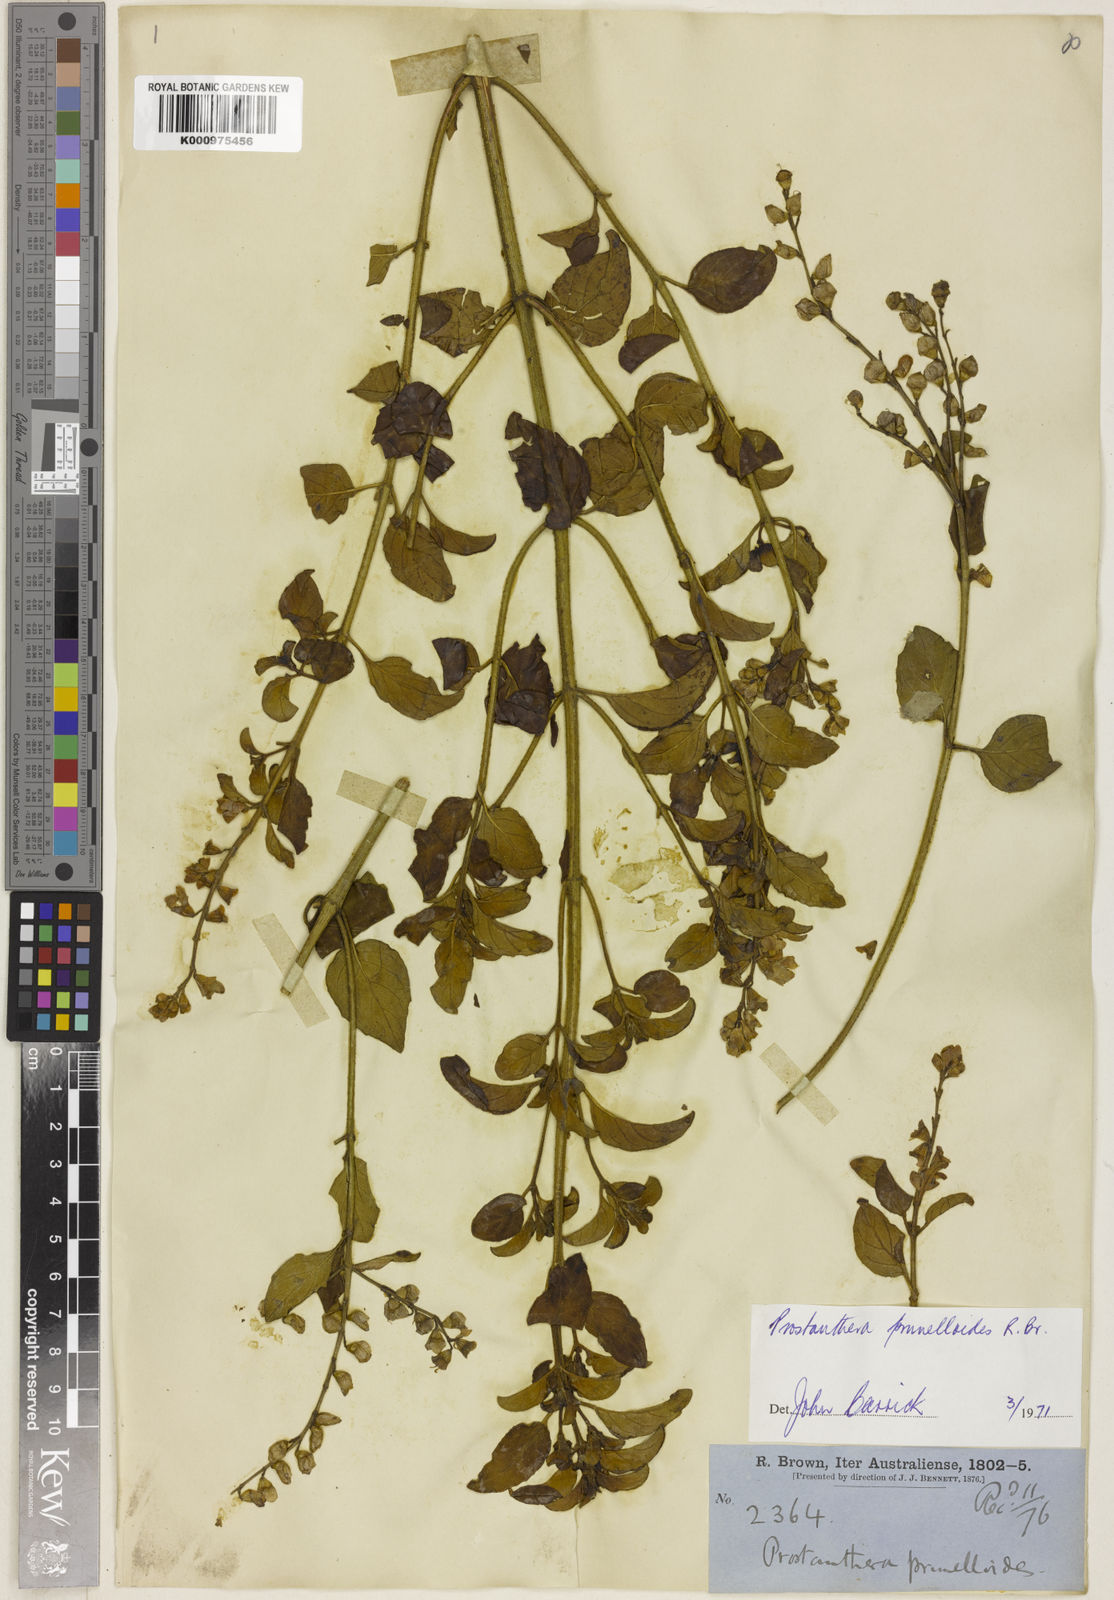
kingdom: Plantae
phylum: Tracheophyta
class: Magnoliopsida
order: Lamiales
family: Lamiaceae
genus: Prostanthera
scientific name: Prostanthera prunelloides
